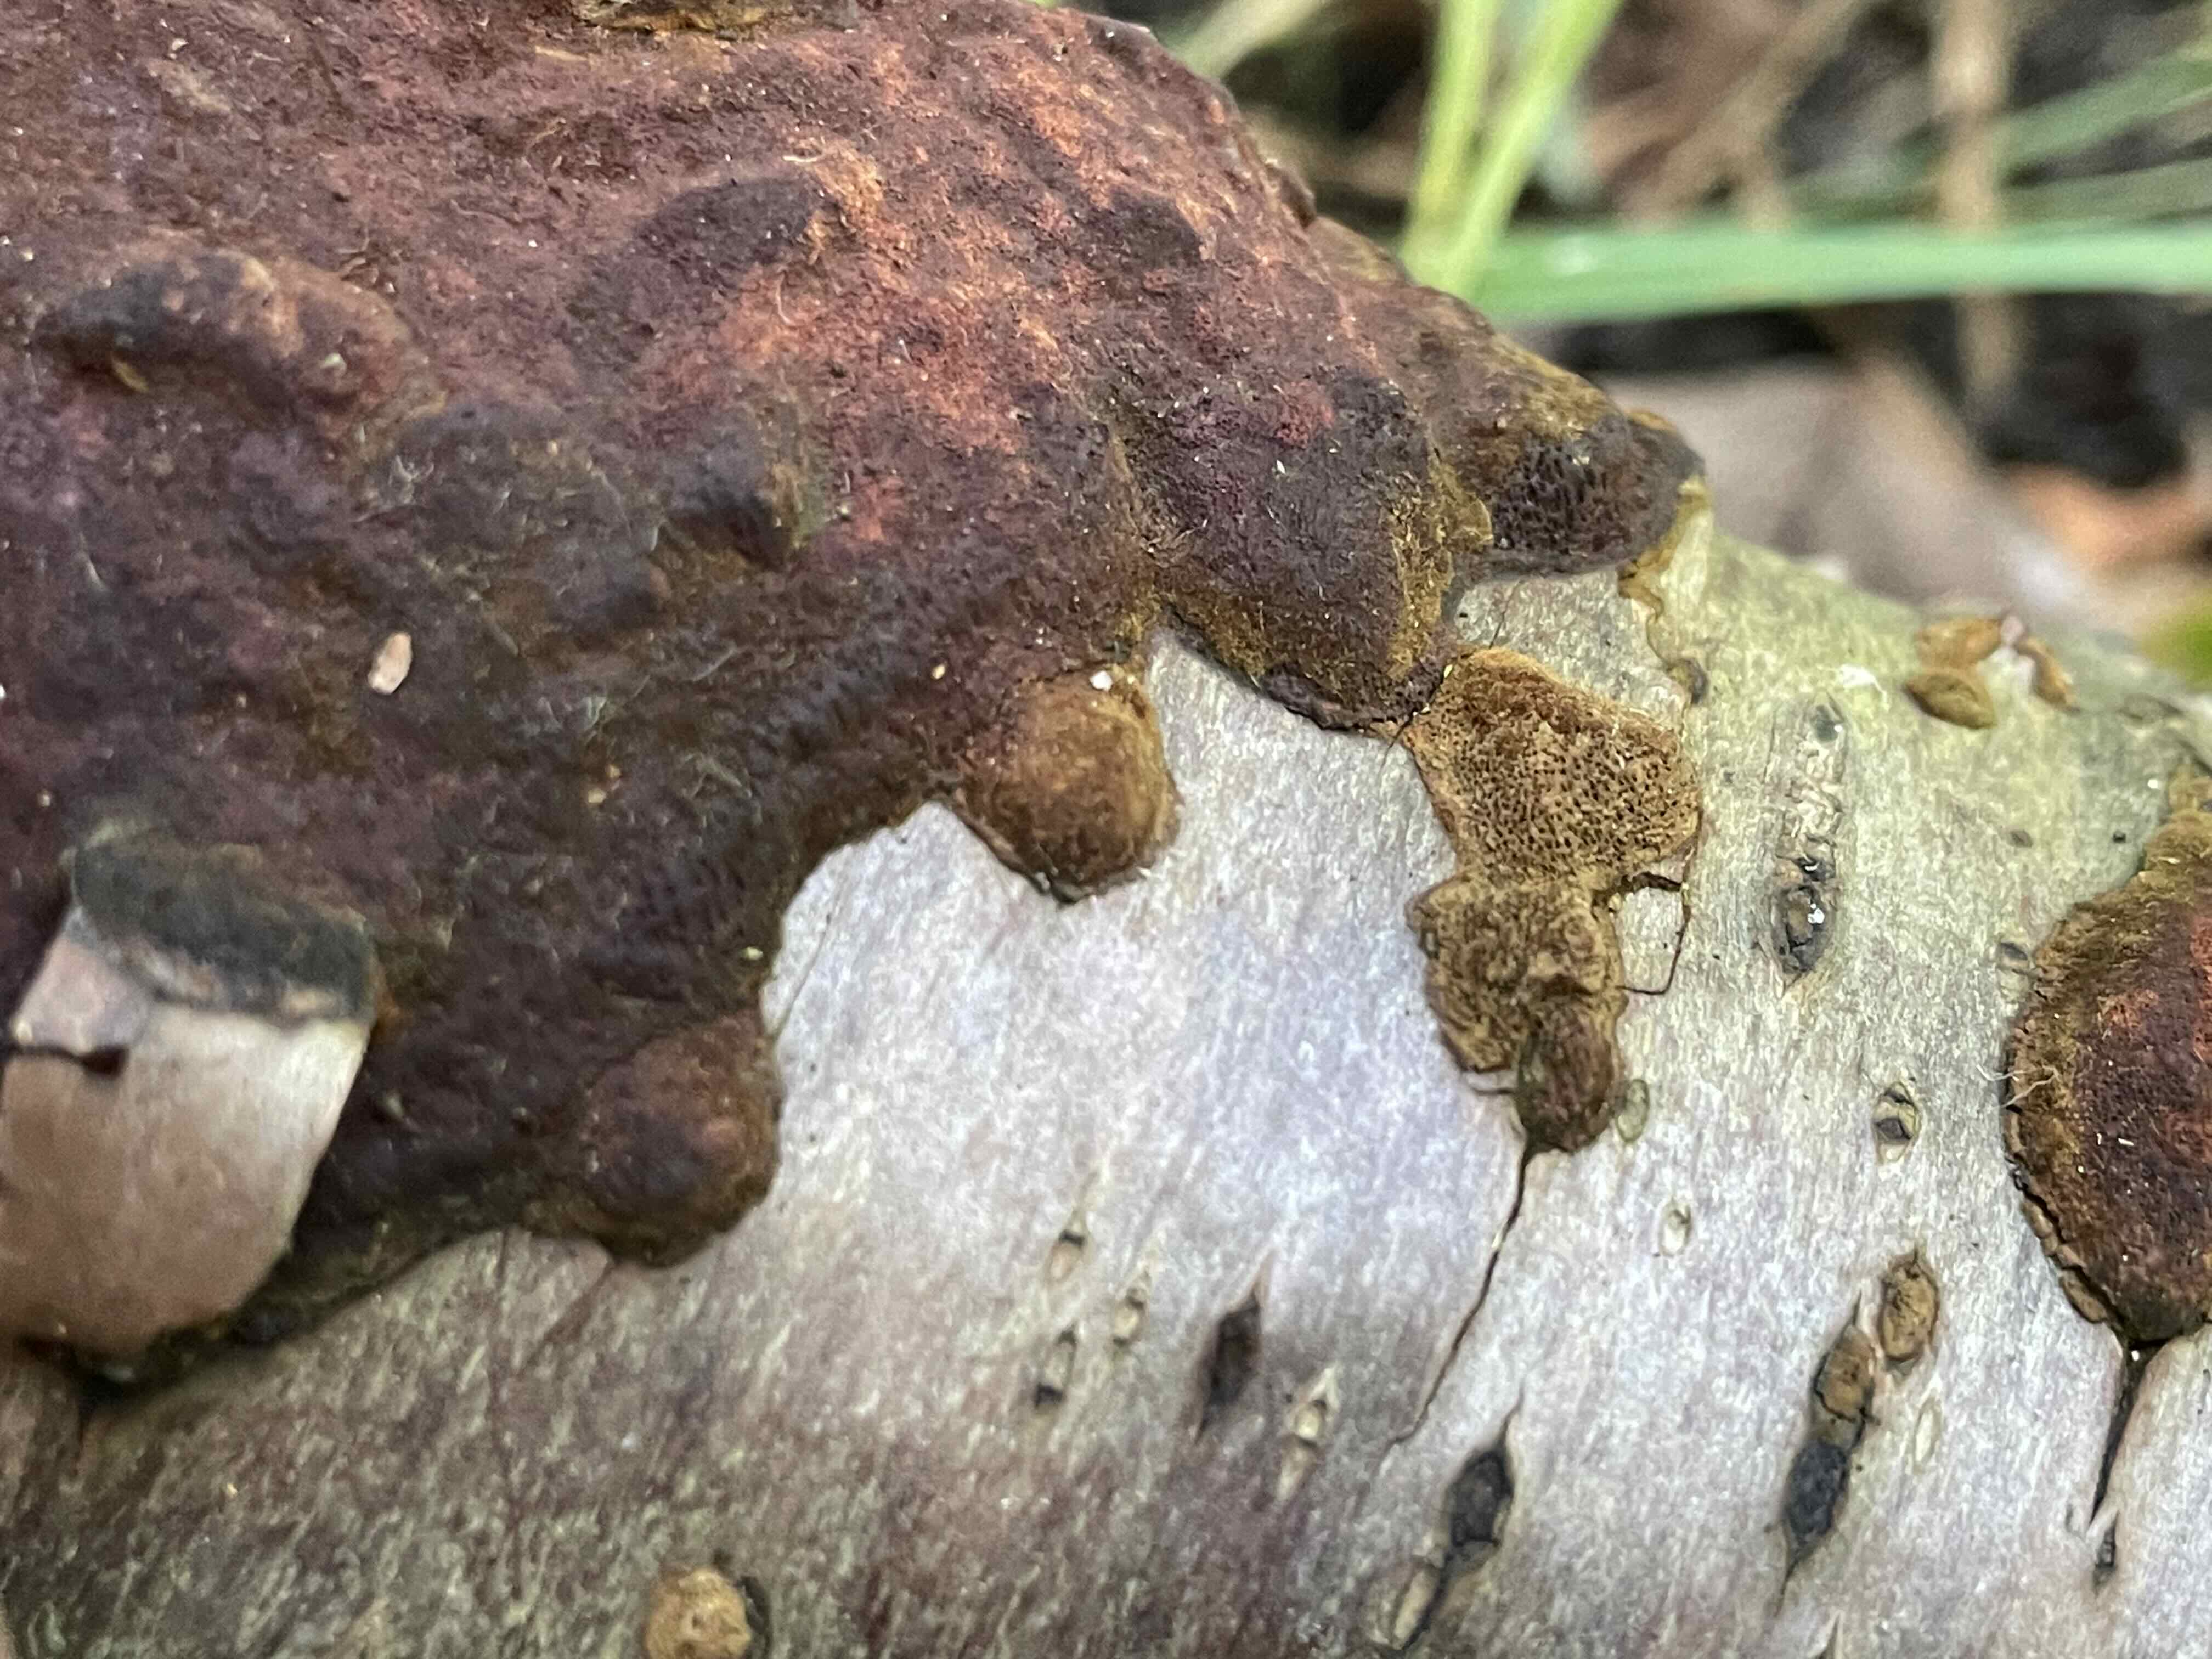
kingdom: Fungi
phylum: Basidiomycota
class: Agaricomycetes
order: Hymenochaetales
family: Hymenochaetaceae
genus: Fuscoporia
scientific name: Fuscoporia ferrea
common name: skorpe-ildporesvamp
